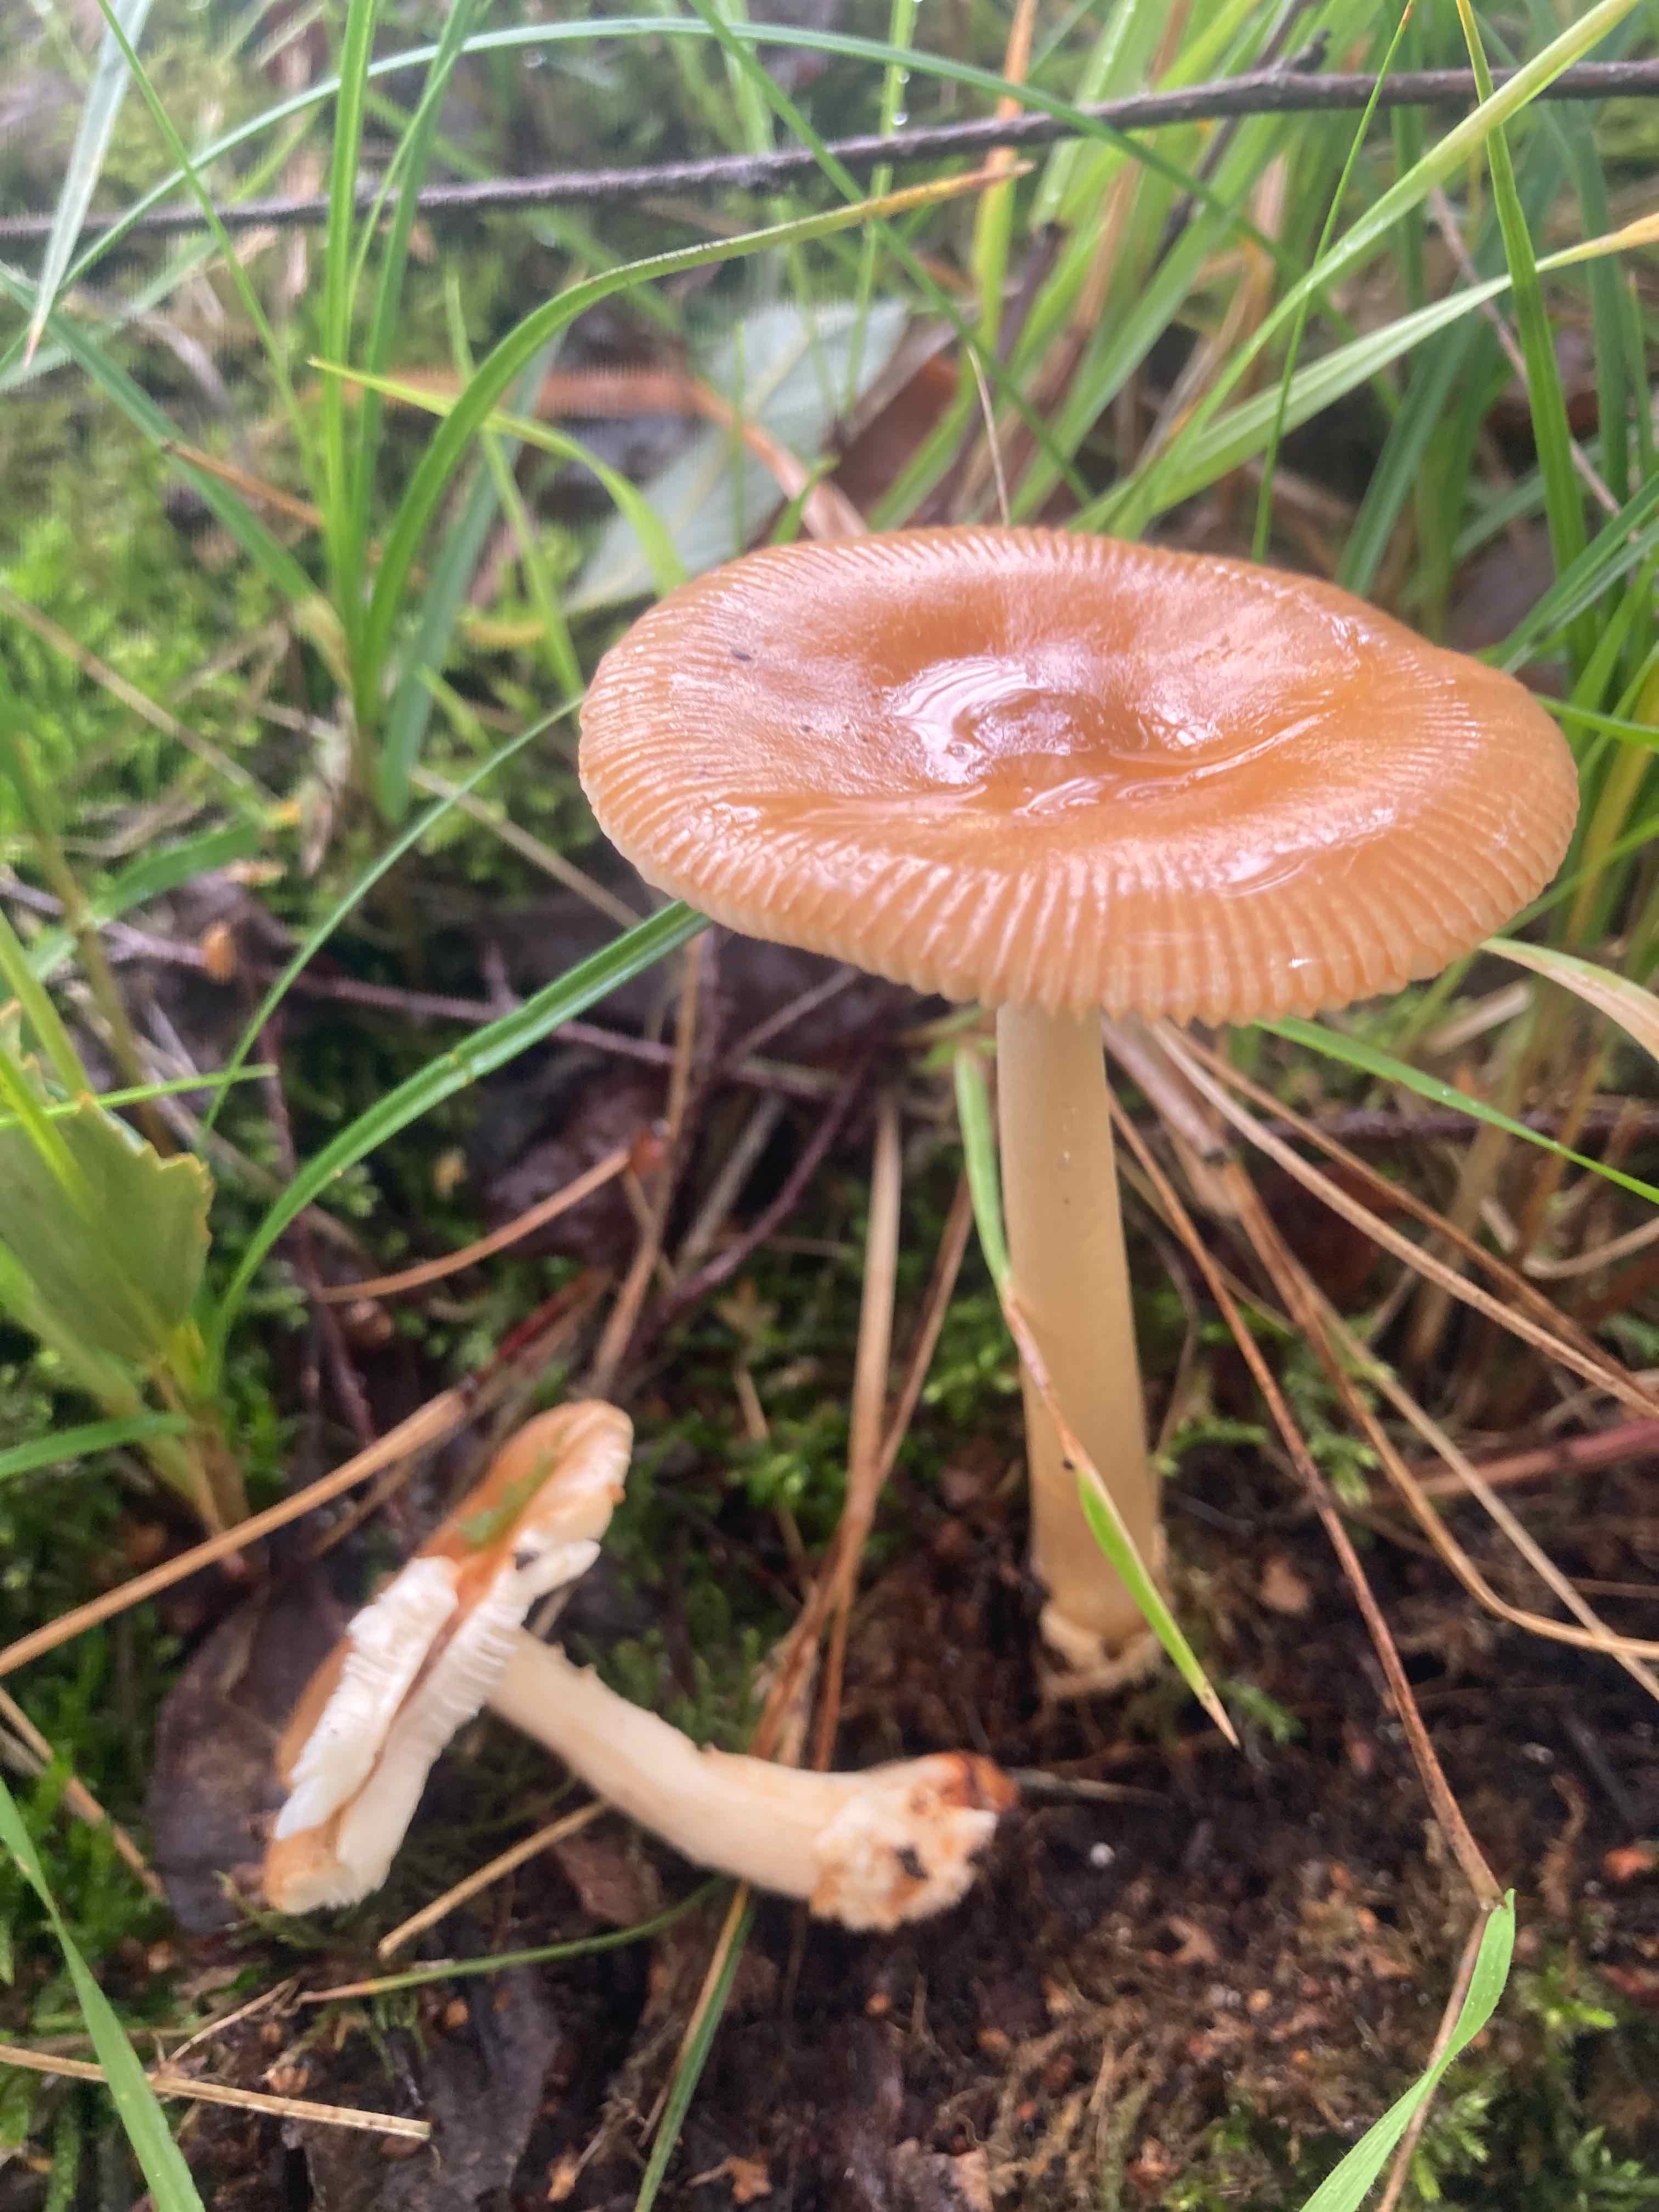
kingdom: Fungi
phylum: Basidiomycota
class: Agaricomycetes
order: Agaricales
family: Amanitaceae
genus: Amanita
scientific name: Amanita fulva
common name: brun kam-fluesvamp
